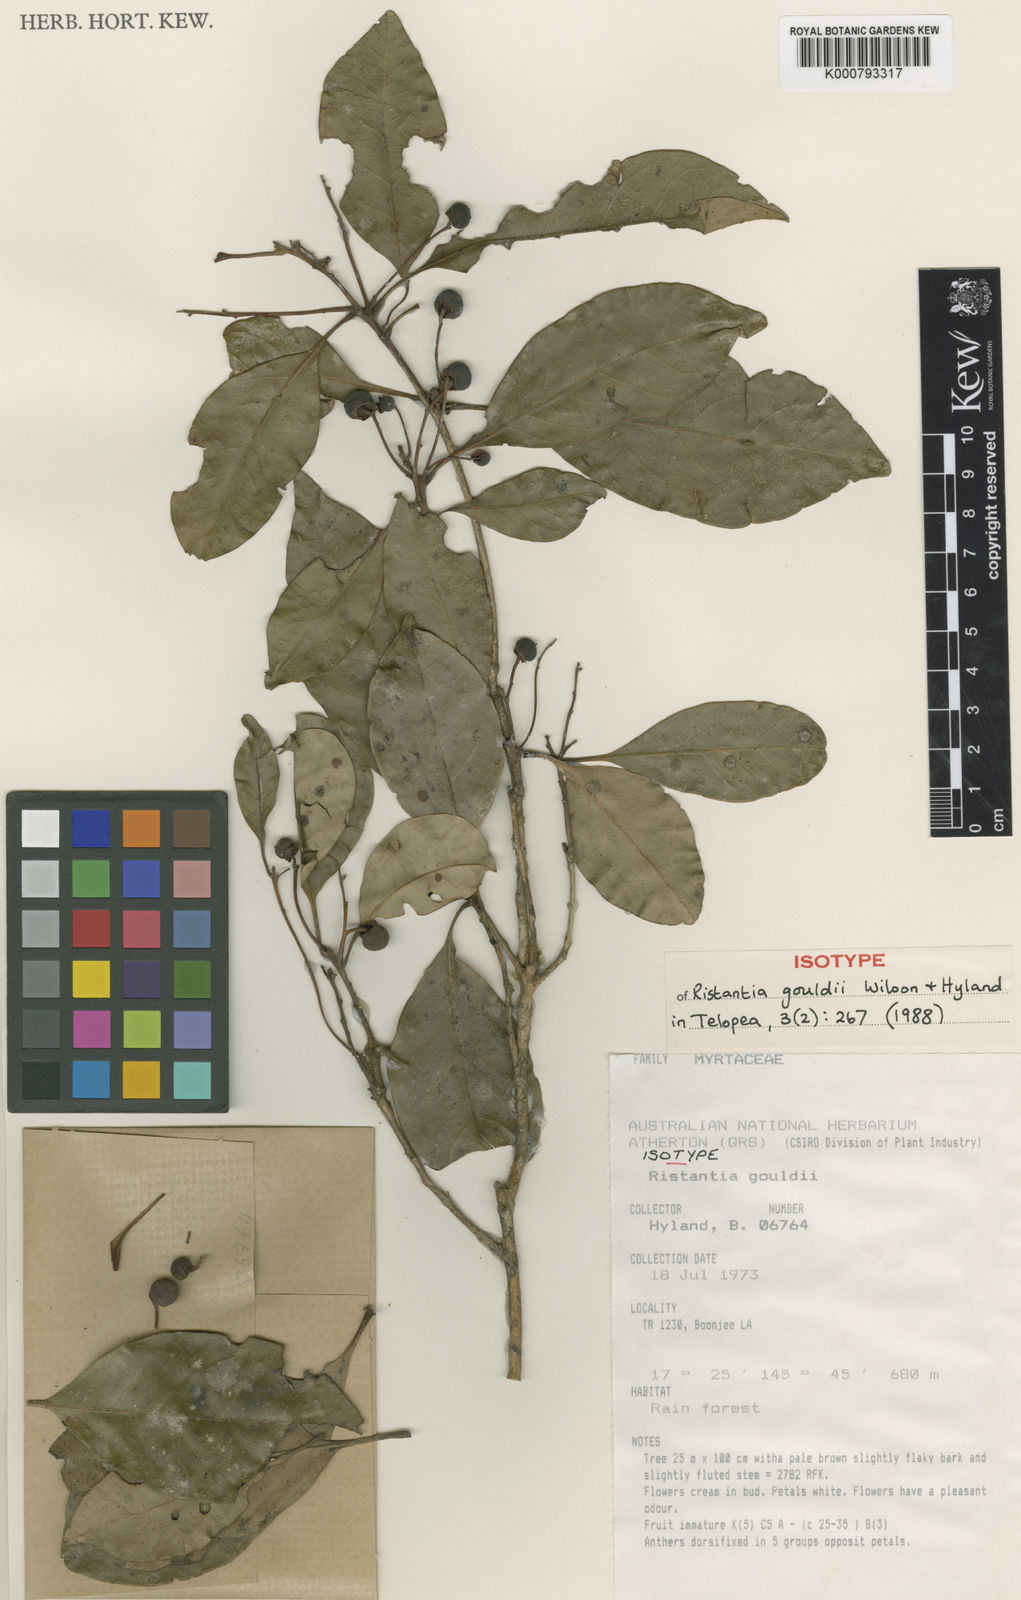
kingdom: Plantae
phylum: Tracheophyta
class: Magnoliopsida
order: Myrtales
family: Myrtaceae
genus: Ristantia
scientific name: Ristantia gouldii
